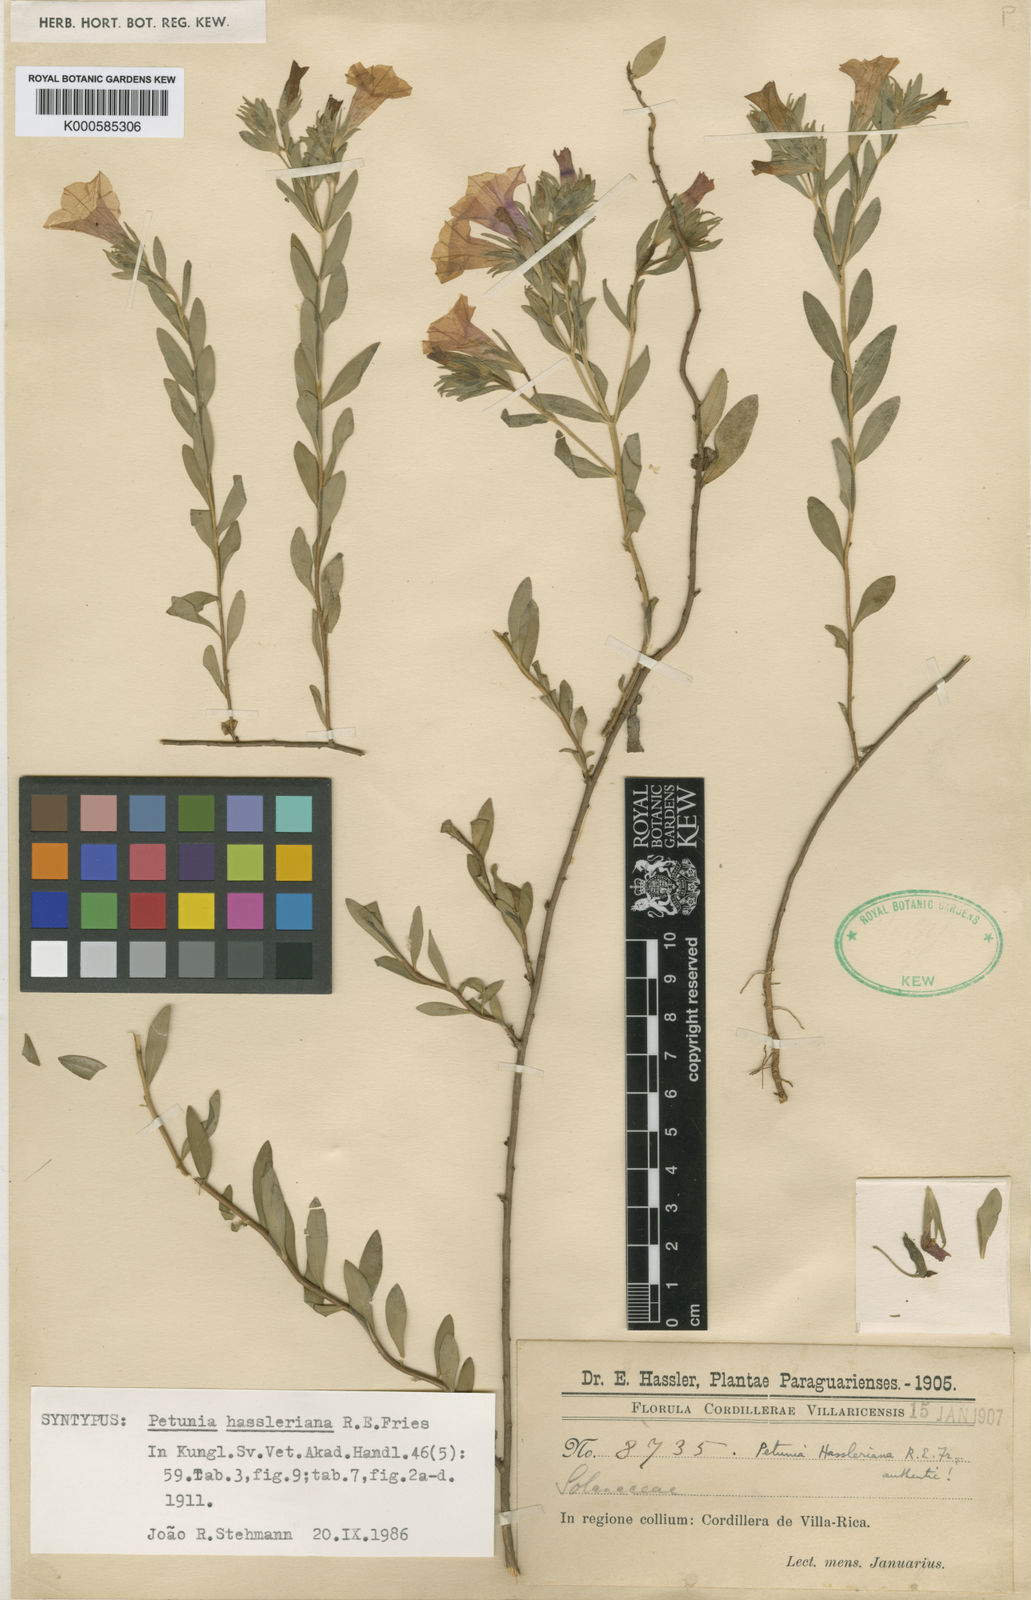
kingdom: Plantae
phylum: Tracheophyta
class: Magnoliopsida
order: Solanales
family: Solanaceae
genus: Calibrachoa
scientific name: Calibrachoa excellens
